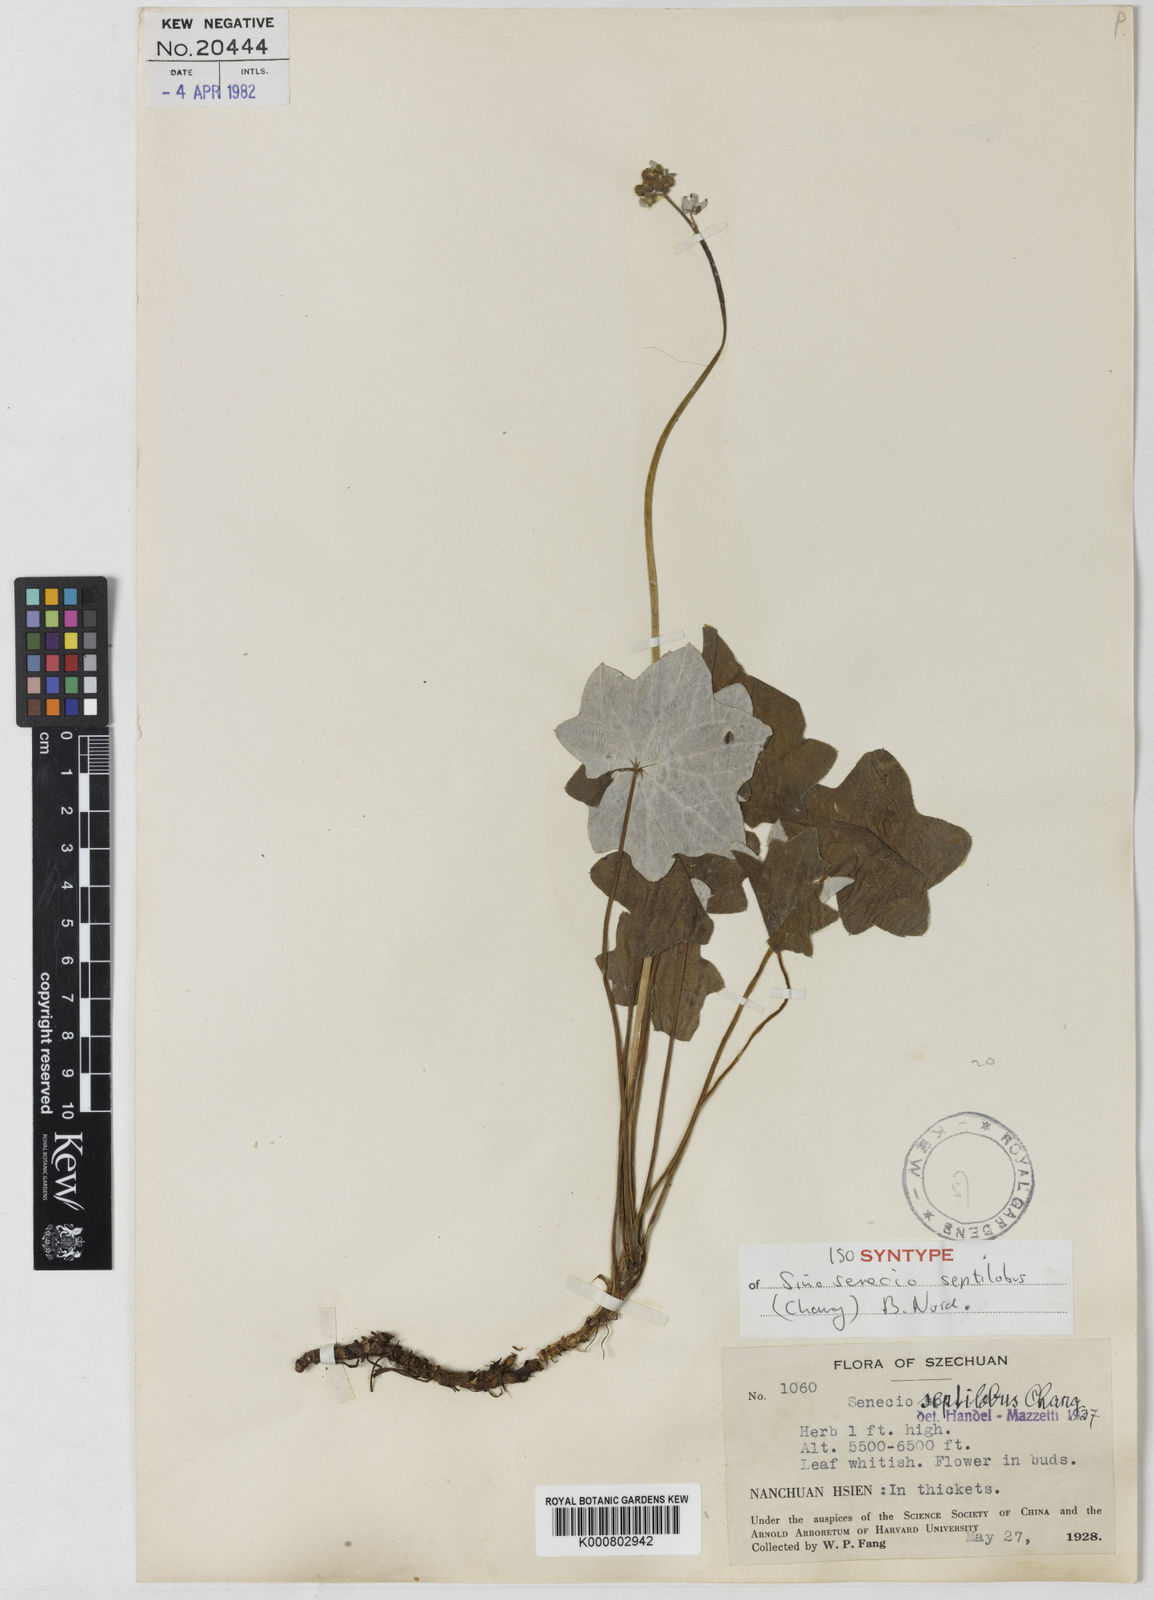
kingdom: Plantae
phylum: Tracheophyta
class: Magnoliopsida
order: Asterales
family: Asteraceae
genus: Sinosenecio
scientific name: Sinosenecio septilobus
